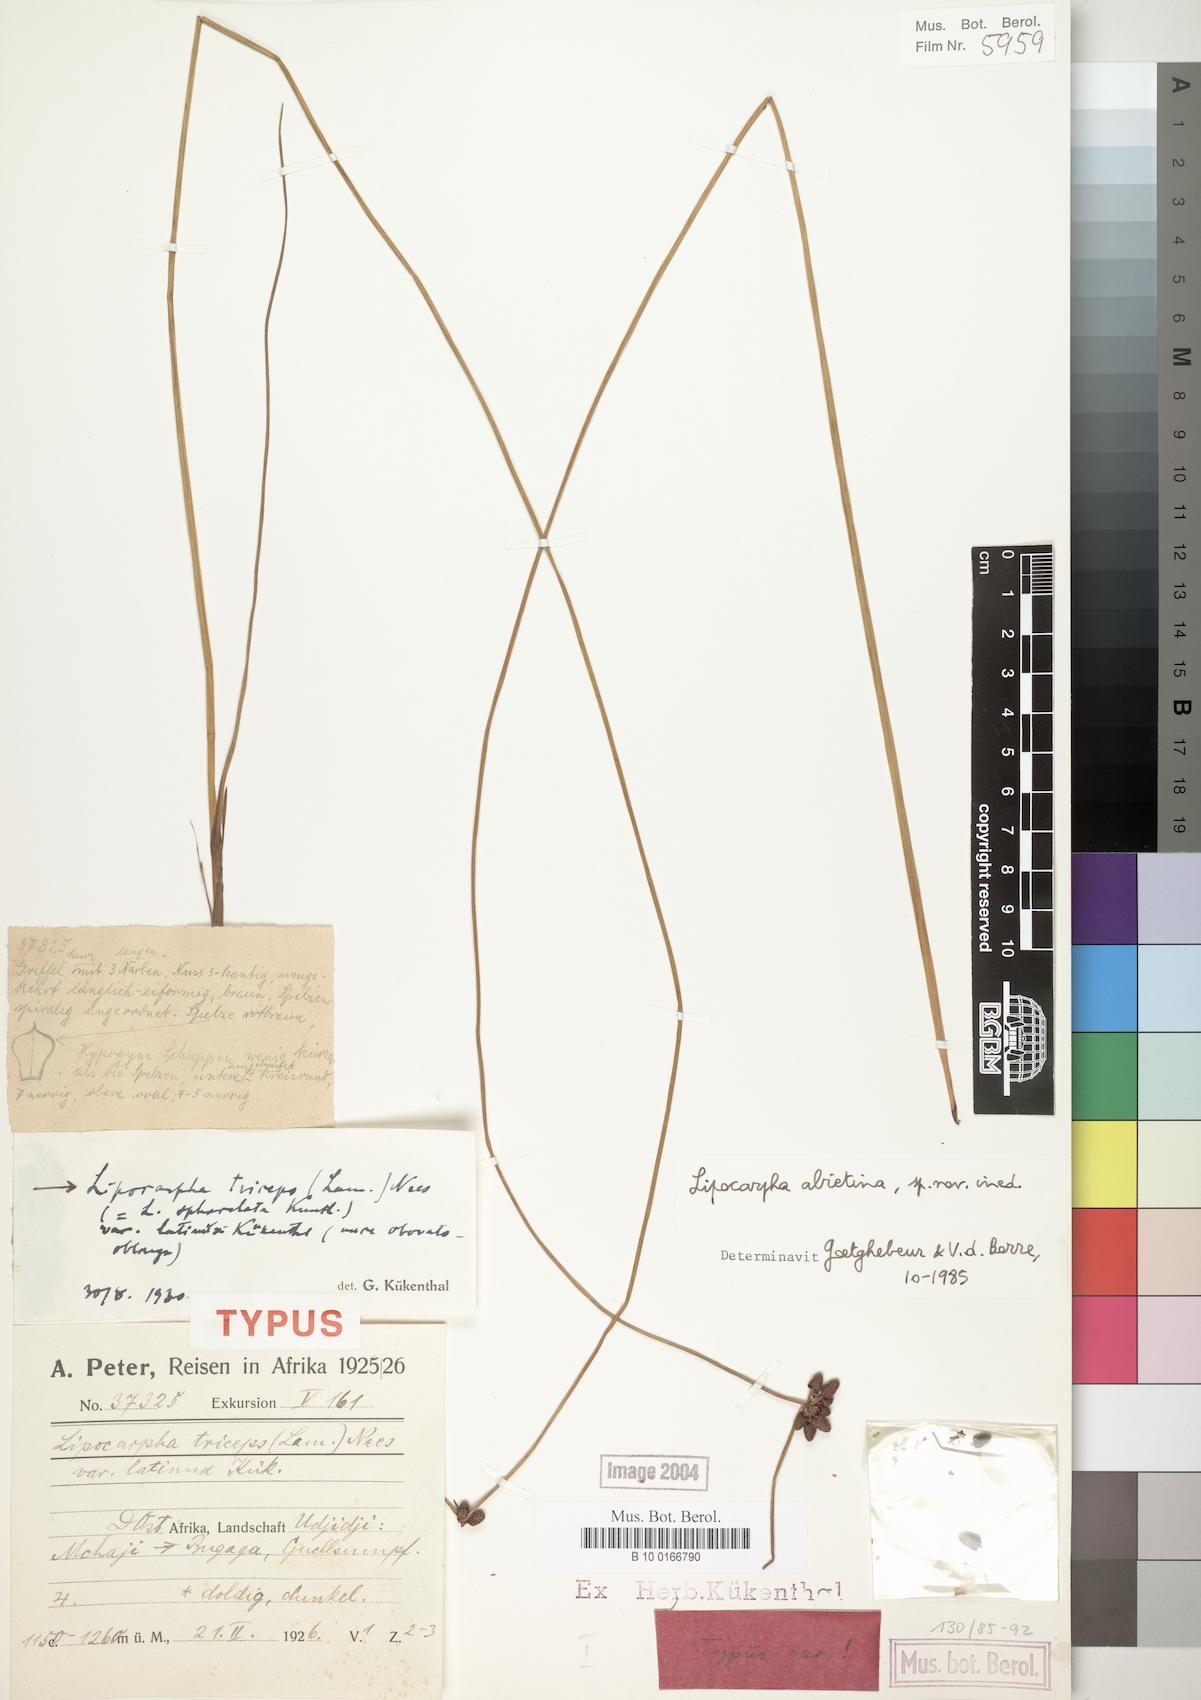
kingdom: Plantae
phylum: Tracheophyta
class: Liliopsida
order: Poales
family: Cyperaceae
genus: Cyperus
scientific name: Cyperus abietinus
